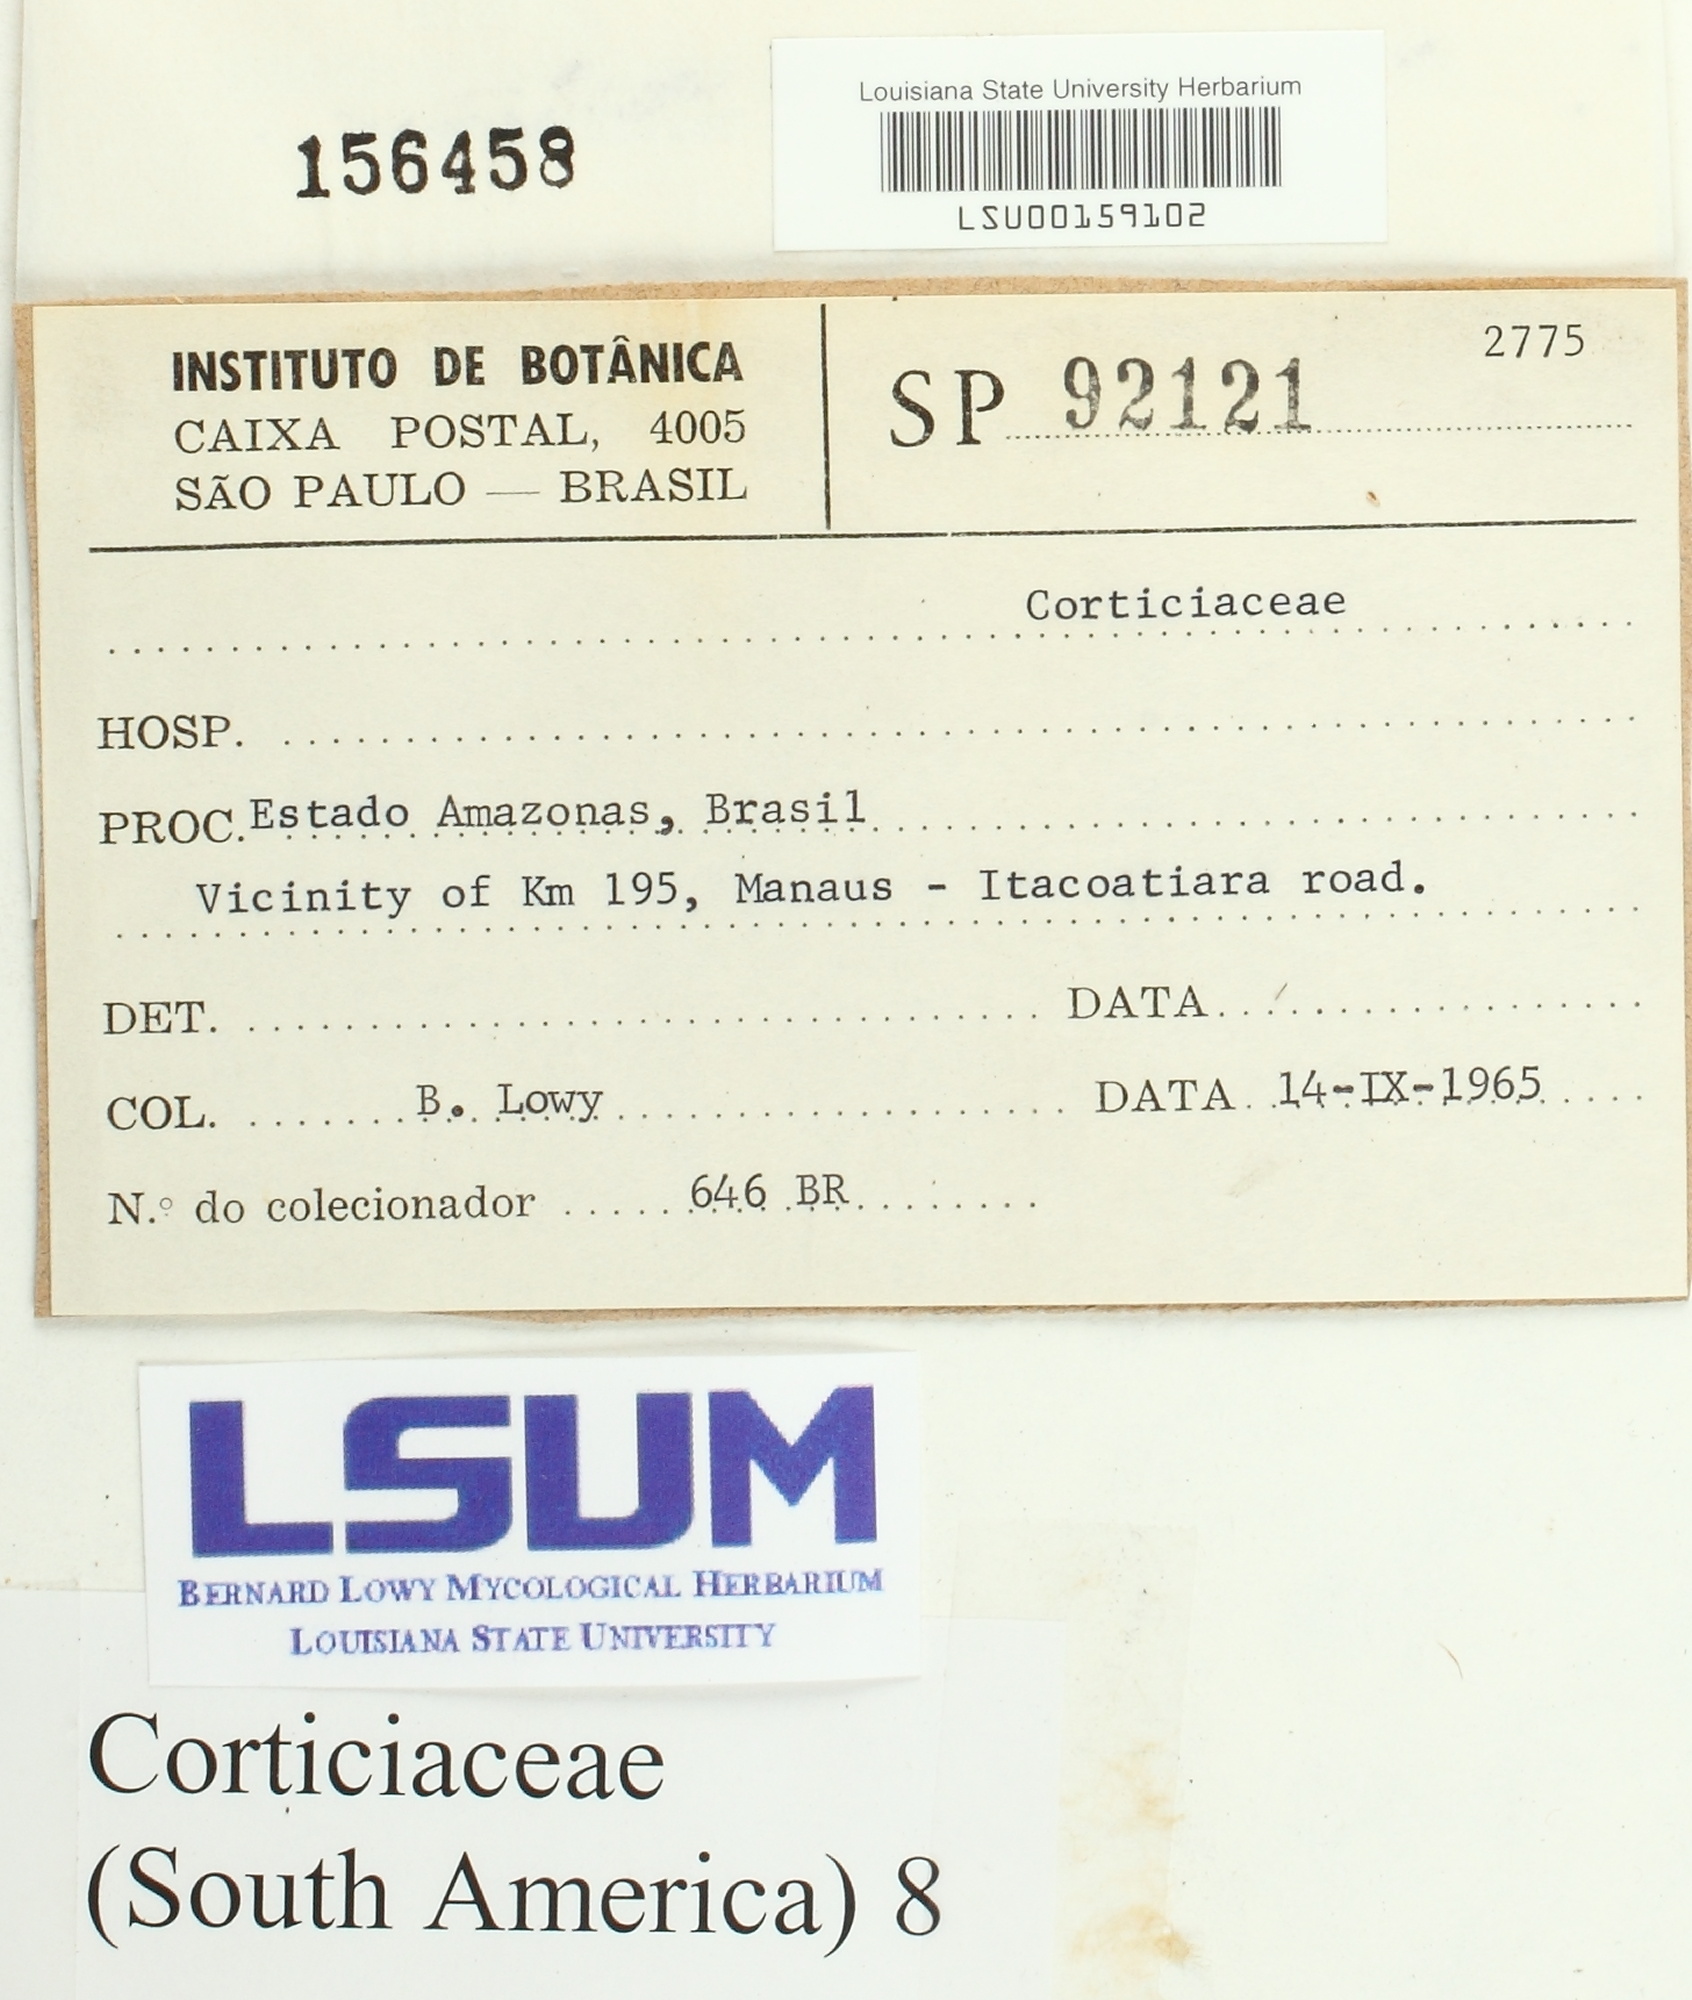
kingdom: Fungi
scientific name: Fungi
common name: Fungi
